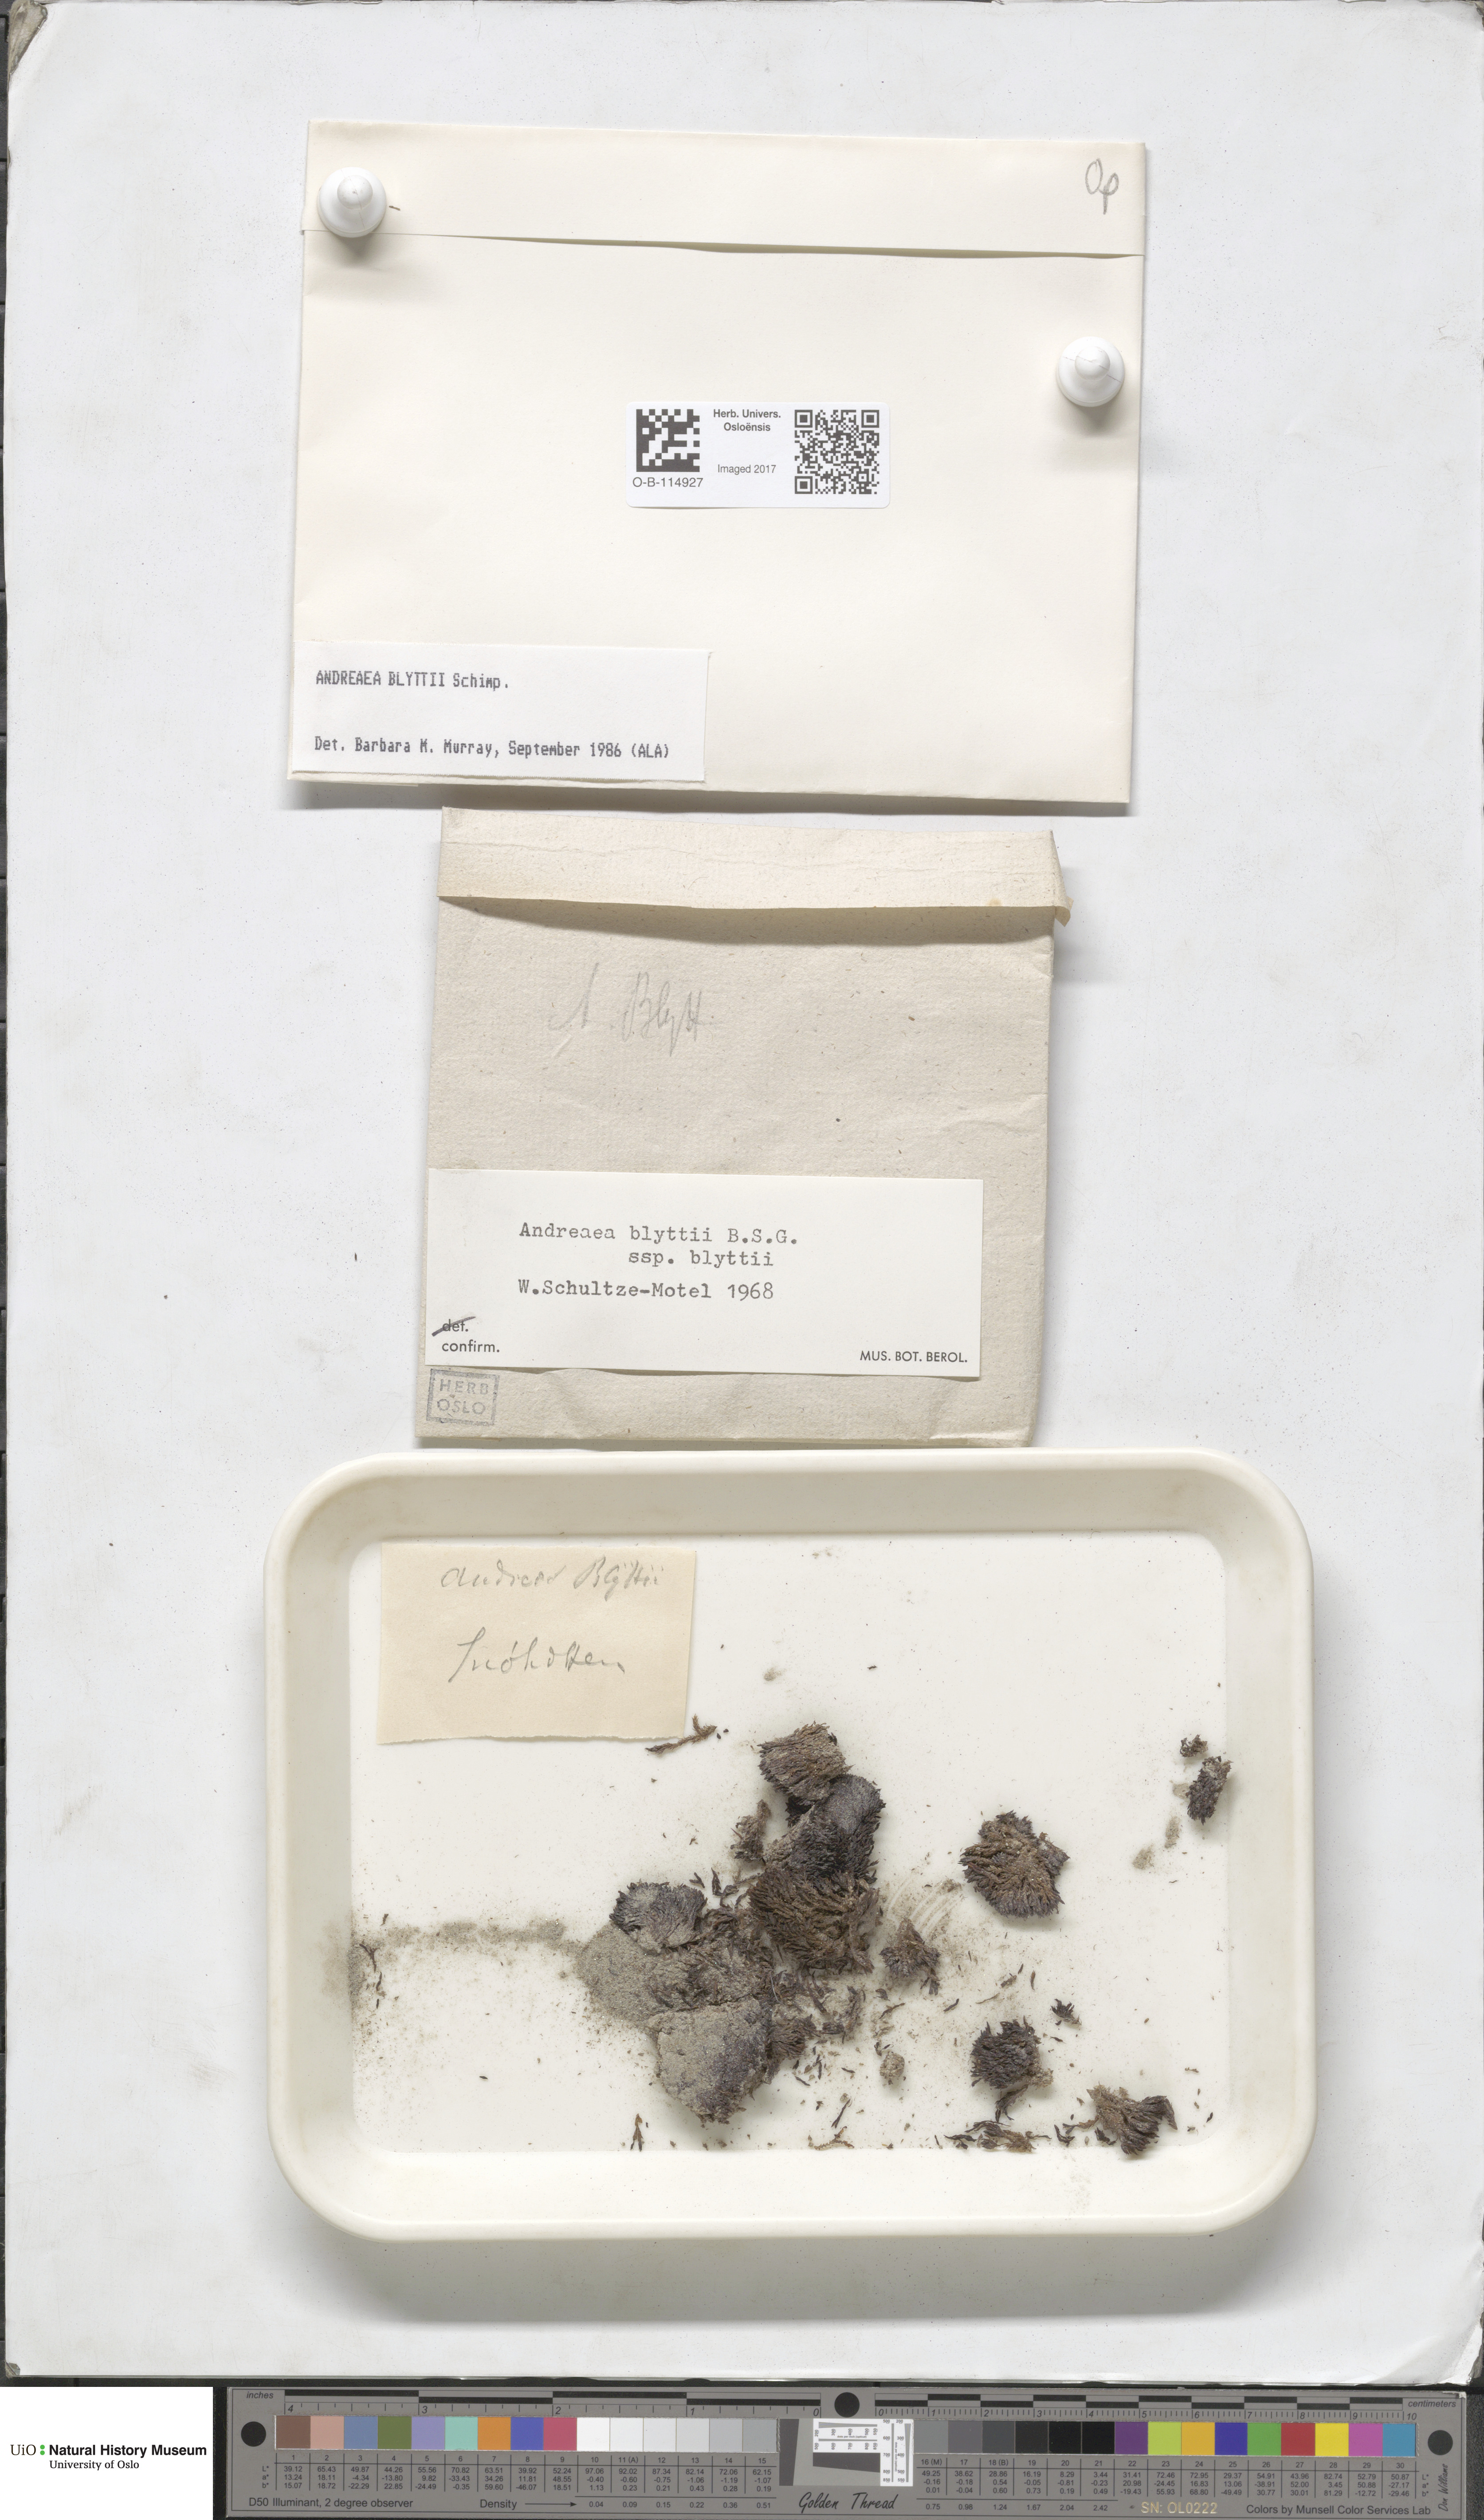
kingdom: Plantae
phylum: Bryophyta
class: Andreaeopsida
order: Andreaeales
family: Andreaeaceae
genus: Andreaea
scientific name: Andreaea blyttii
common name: Blytt's rock moss
